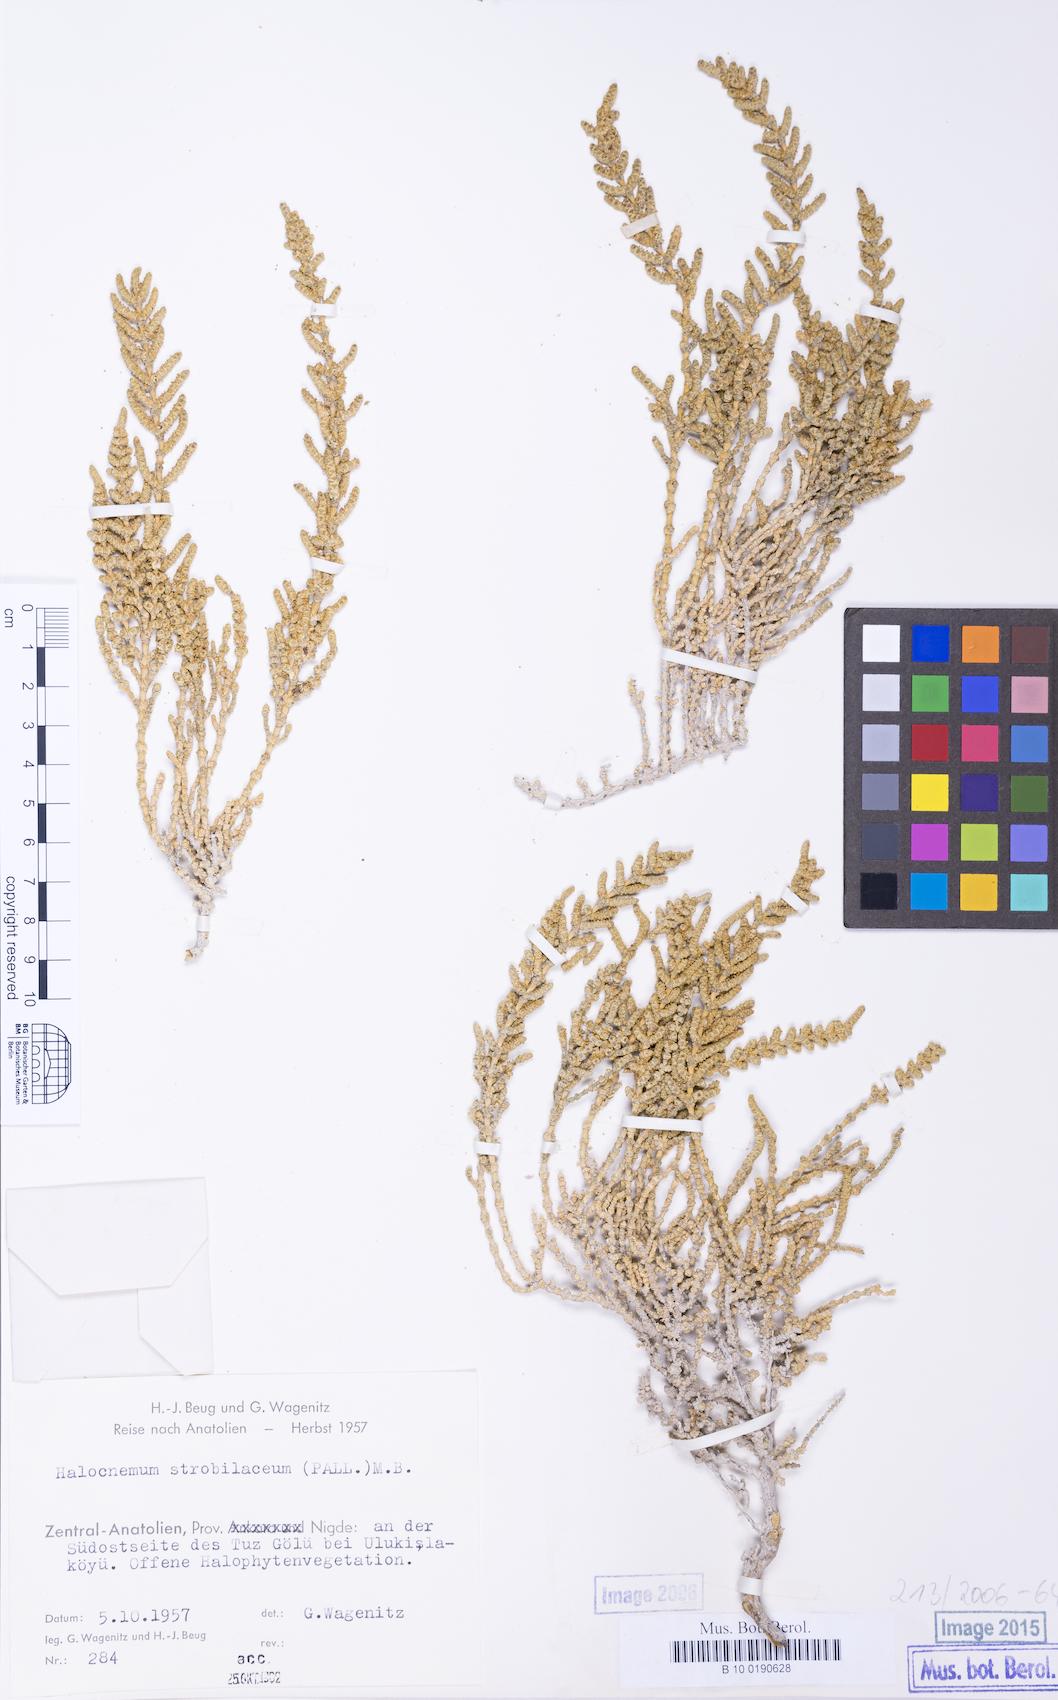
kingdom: Plantae
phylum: Tracheophyta
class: Magnoliopsida
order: Caryophyllales
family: Amaranthaceae
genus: Halocnemum
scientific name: Halocnemum strobilaceum
